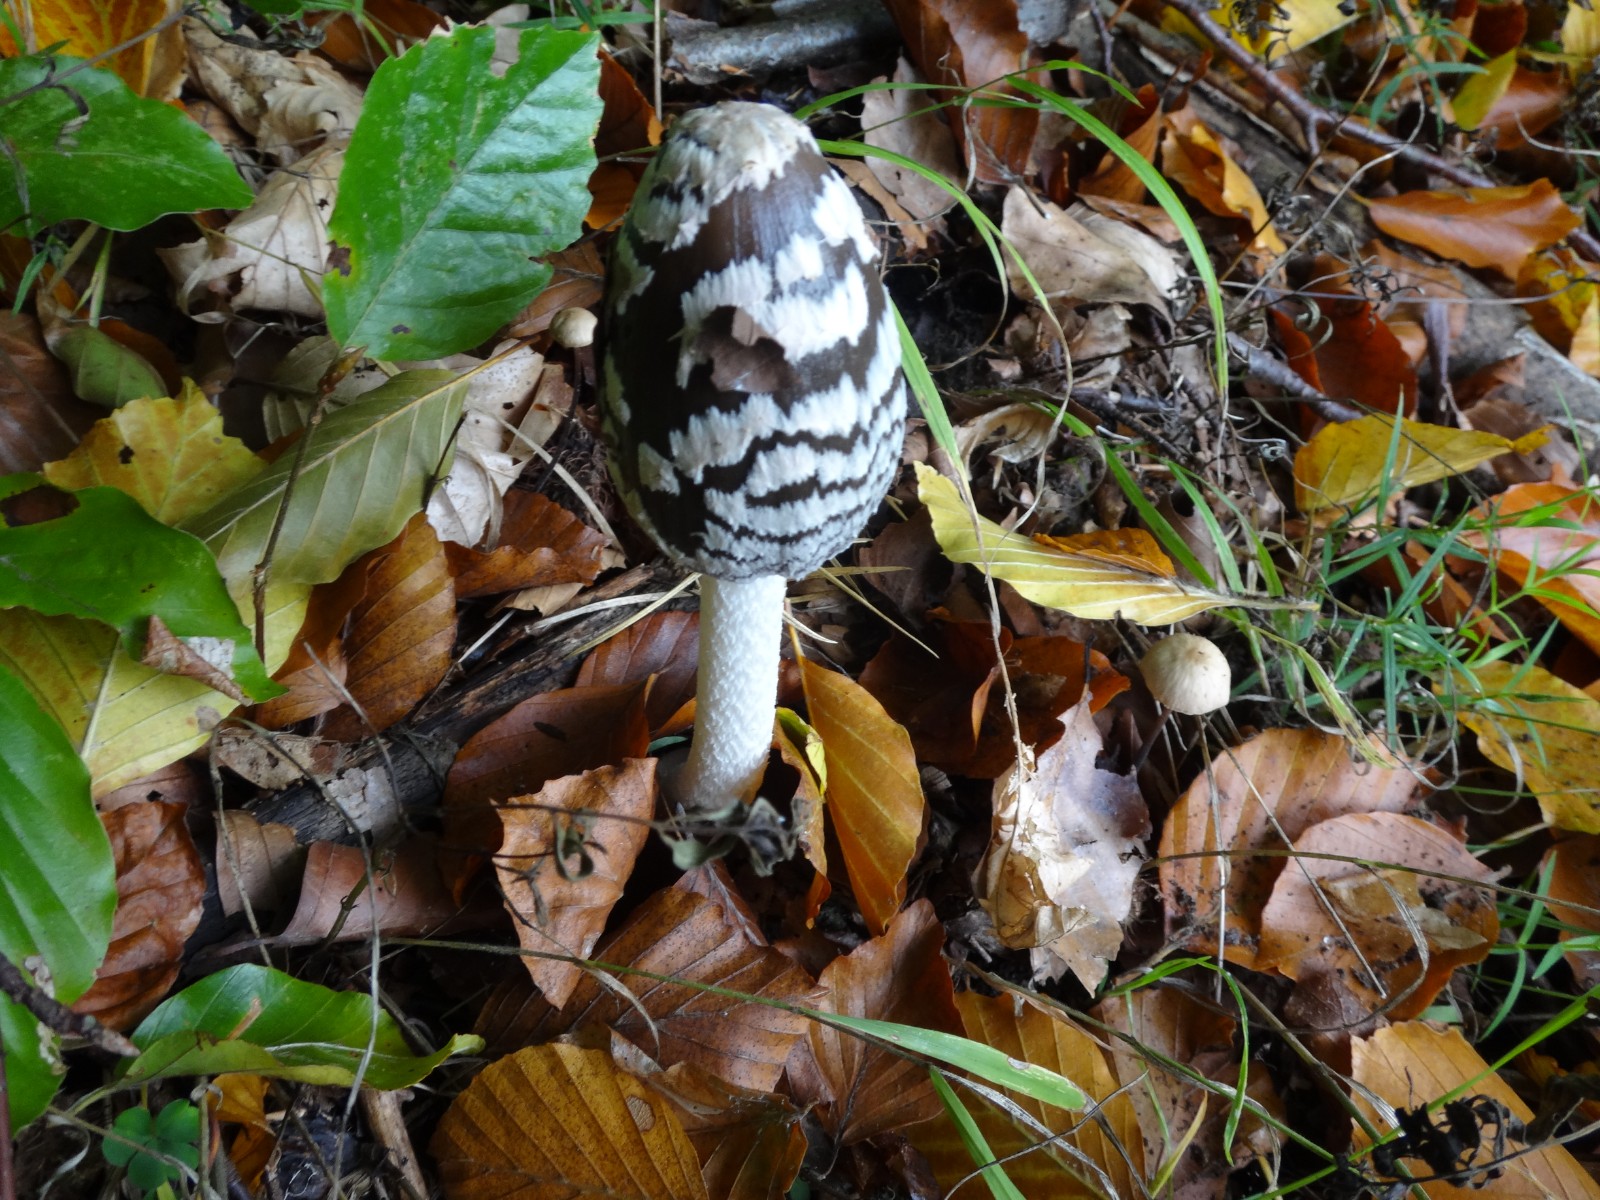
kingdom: Fungi
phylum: Basidiomycota
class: Agaricomycetes
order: Agaricales
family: Psathyrellaceae
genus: Coprinopsis
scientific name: Coprinopsis picacea
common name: skade-blækhat
